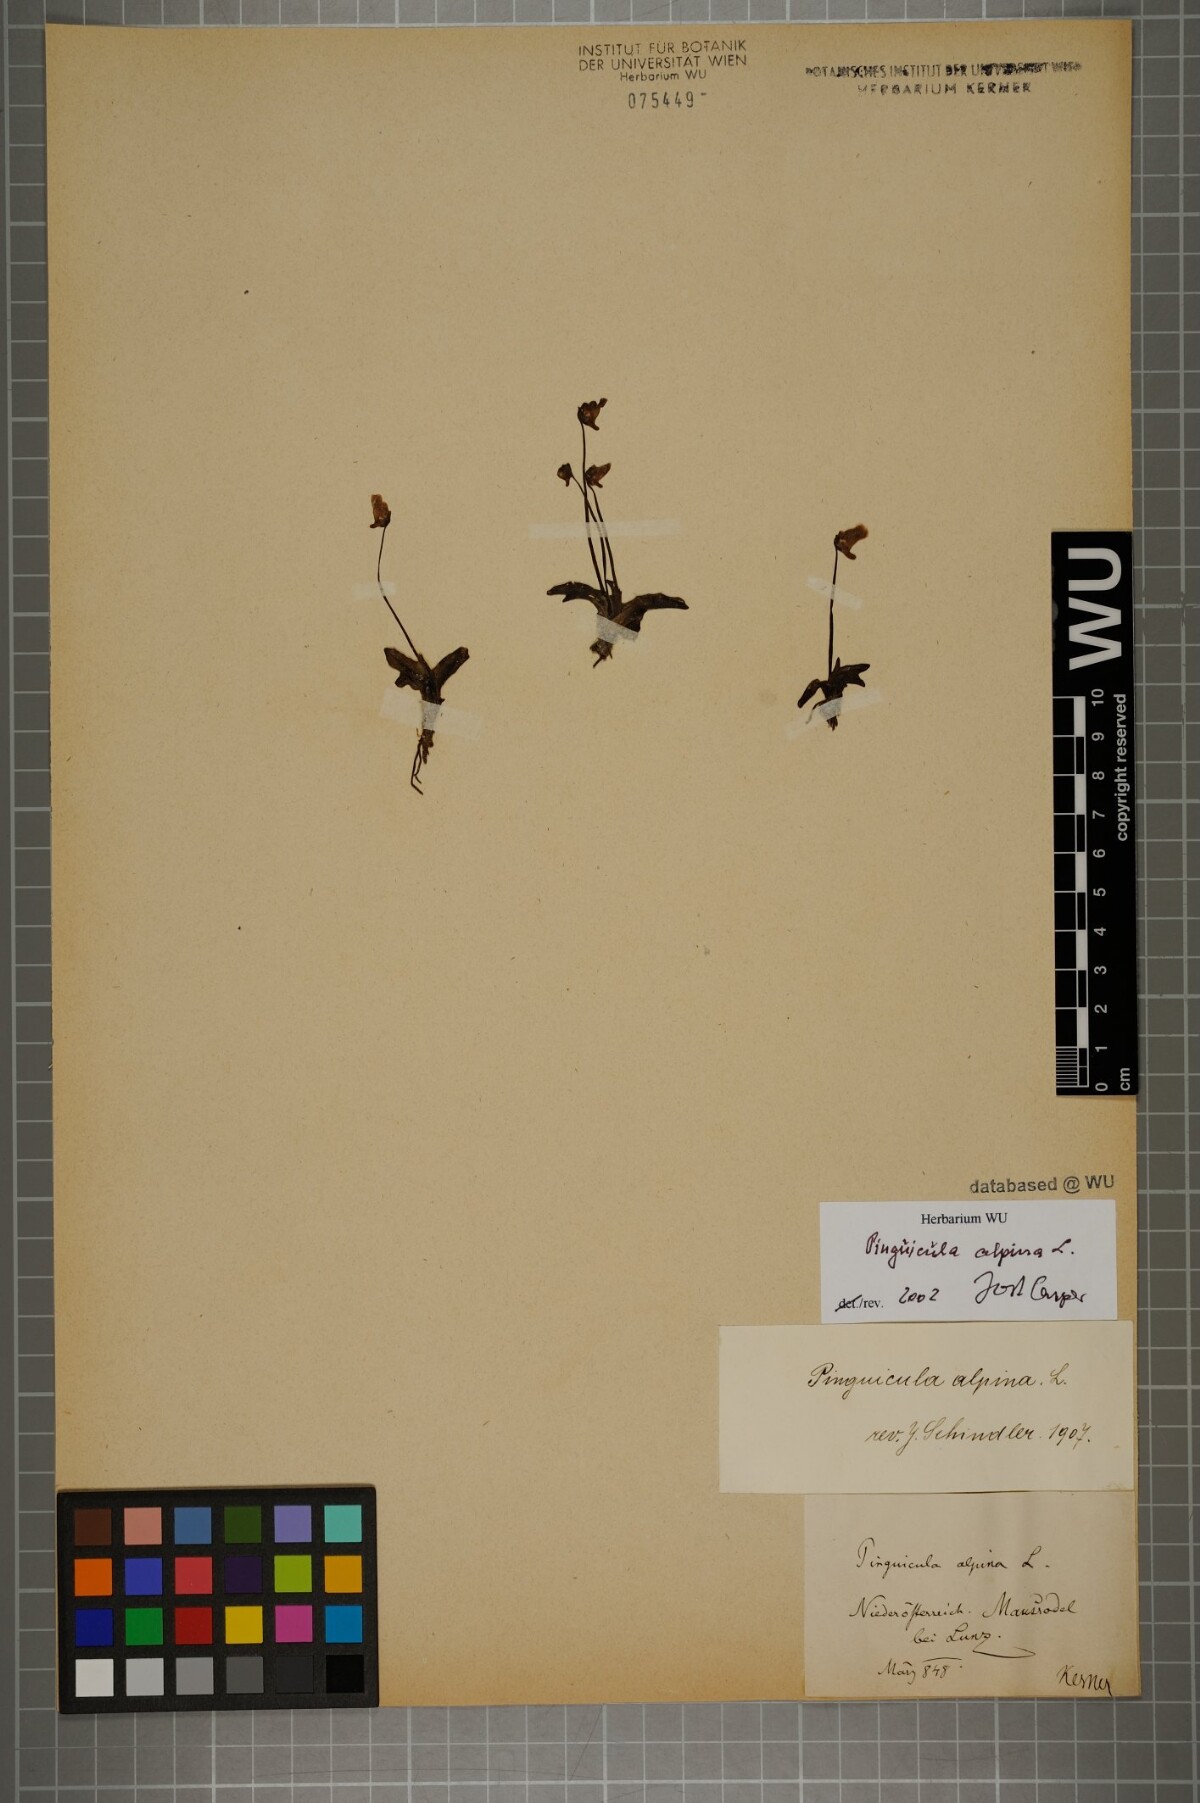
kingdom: Plantae
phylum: Tracheophyta
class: Magnoliopsida
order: Lamiales
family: Lentibulariaceae
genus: Pinguicula
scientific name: Pinguicula alpina
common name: Alpine butterwort
